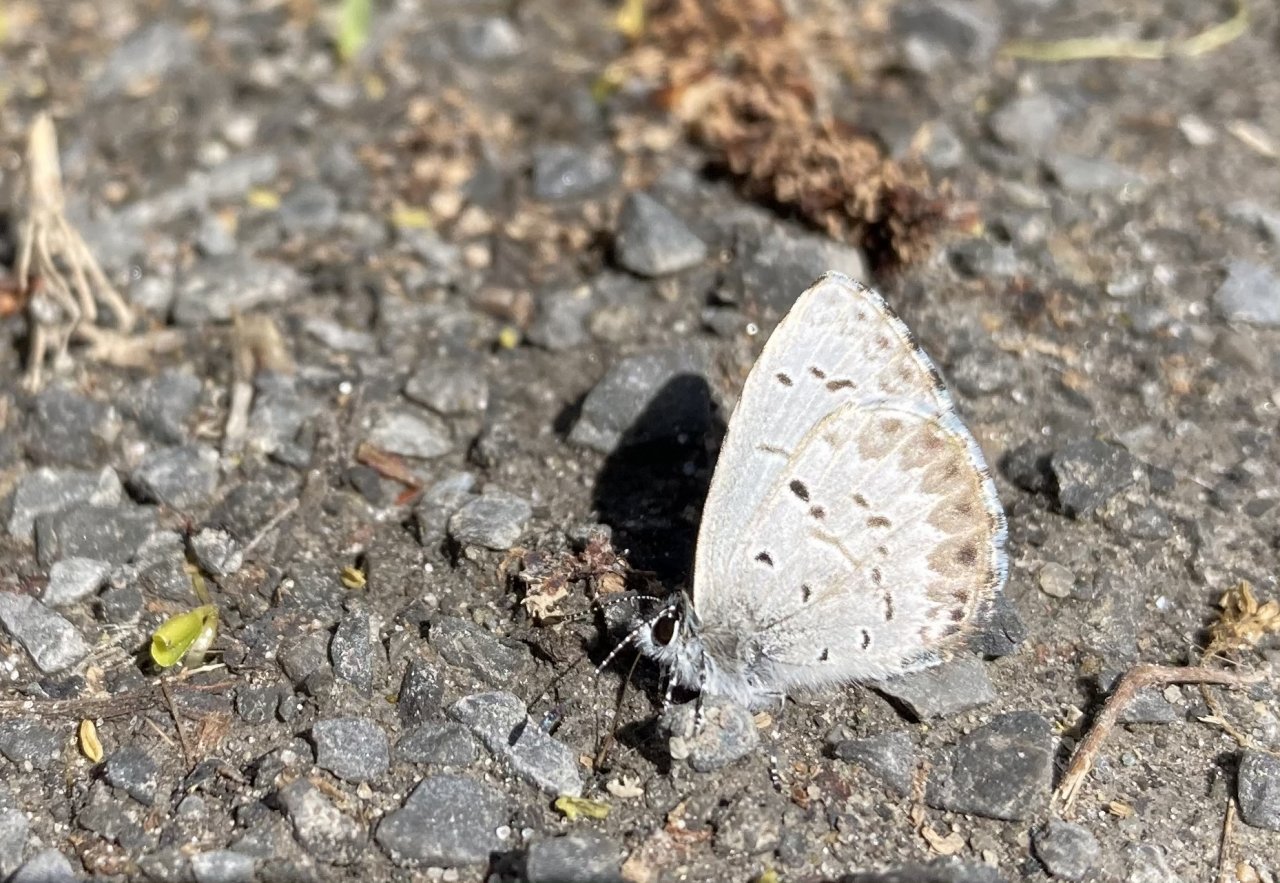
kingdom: Animalia
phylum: Arthropoda
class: Insecta
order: Lepidoptera
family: Lycaenidae
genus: Celastrina
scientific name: Celastrina lucia
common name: Northern Spring Azure
